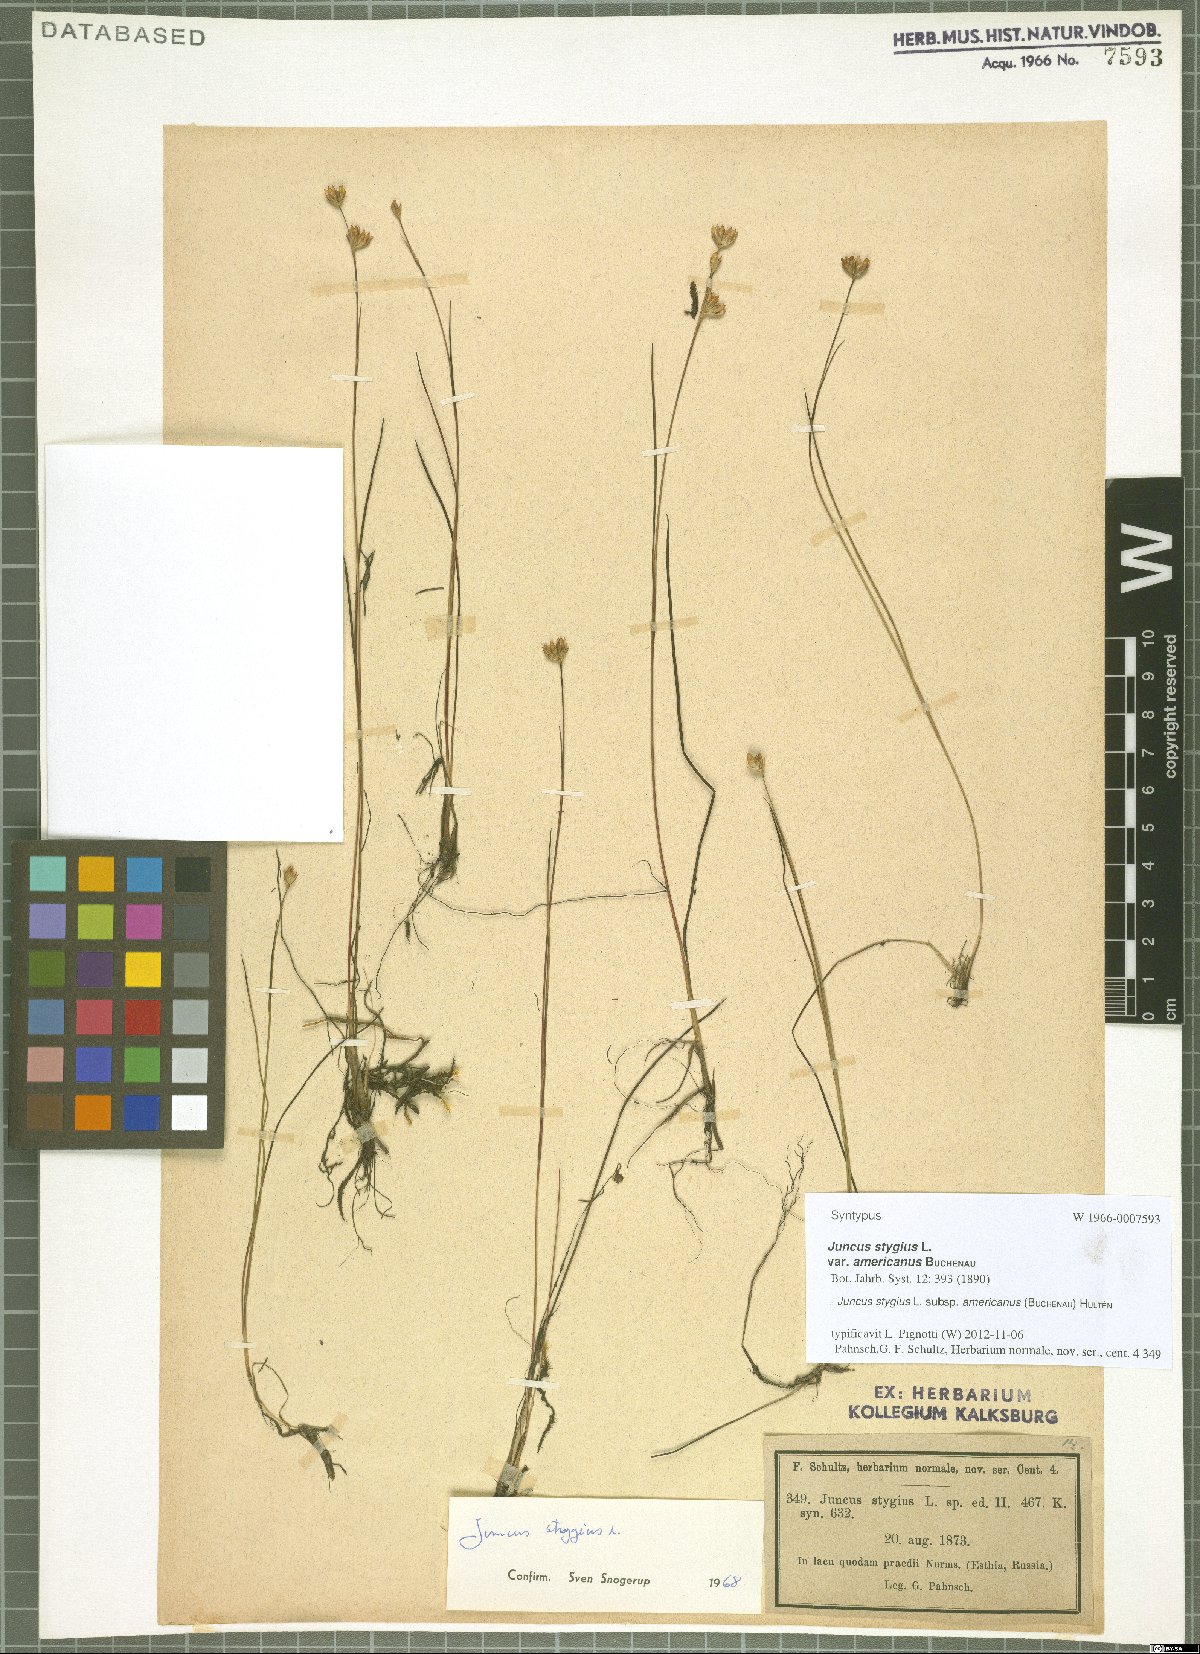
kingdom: Plantae
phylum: Tracheophyta
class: Liliopsida
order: Poales
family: Juncaceae
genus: Juncus
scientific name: Juncus stygius
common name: Bog rush
